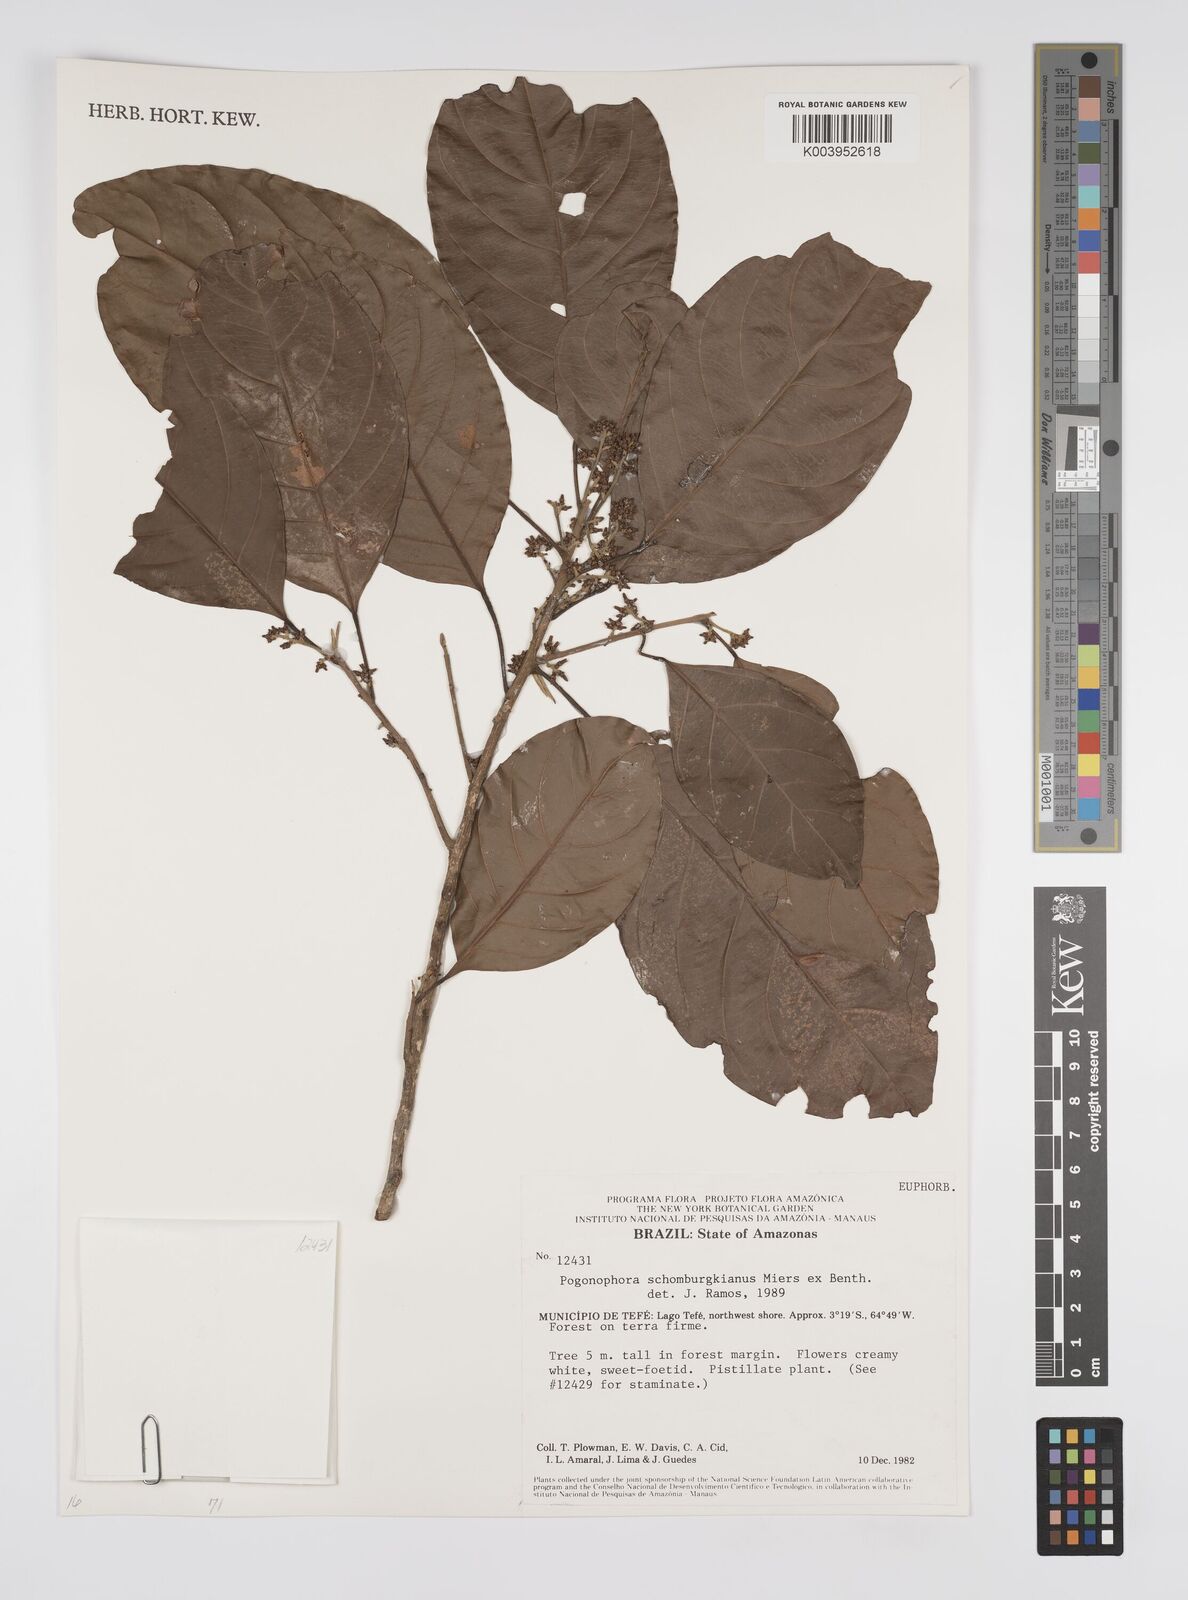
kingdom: Plantae
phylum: Tracheophyta
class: Magnoliopsida
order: Malpighiales
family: Peraceae
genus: Pogonophora
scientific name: Pogonophora schomburgkiana
